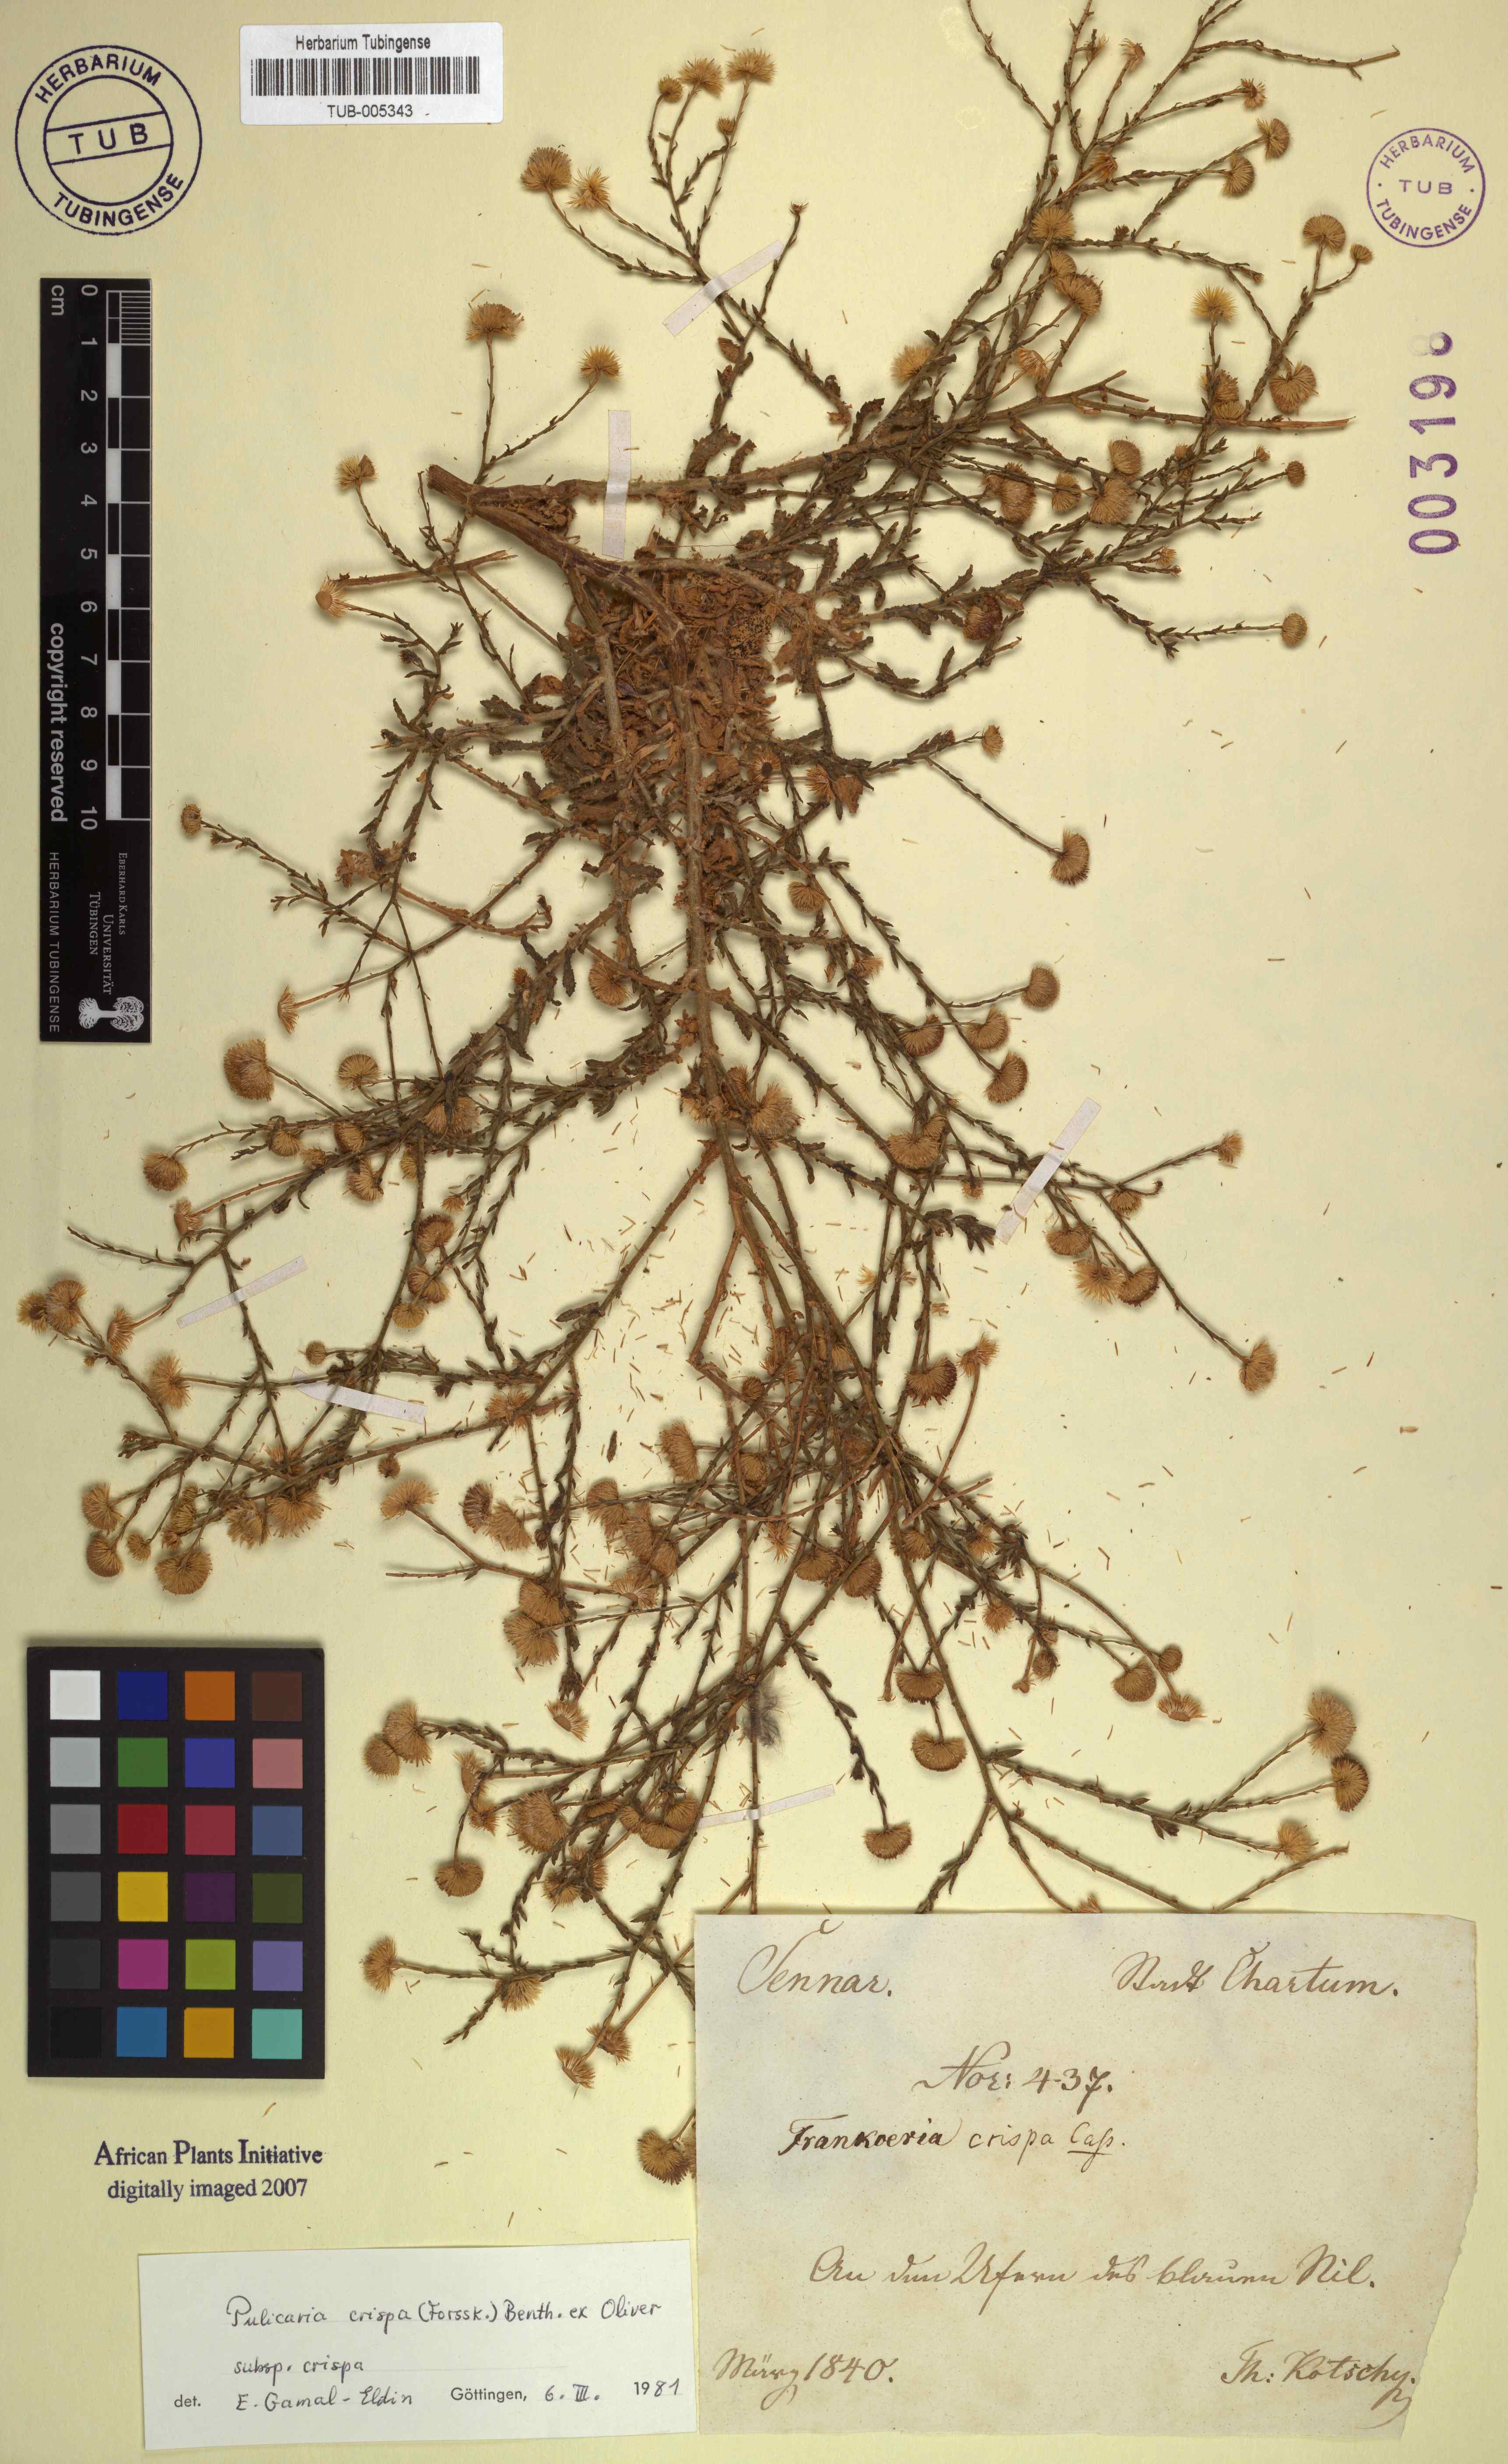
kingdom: Plantae
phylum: Tracheophyta
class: Magnoliopsida
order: Asterales
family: Asteraceae
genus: Pulicaria
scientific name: Pulicaria crispa
